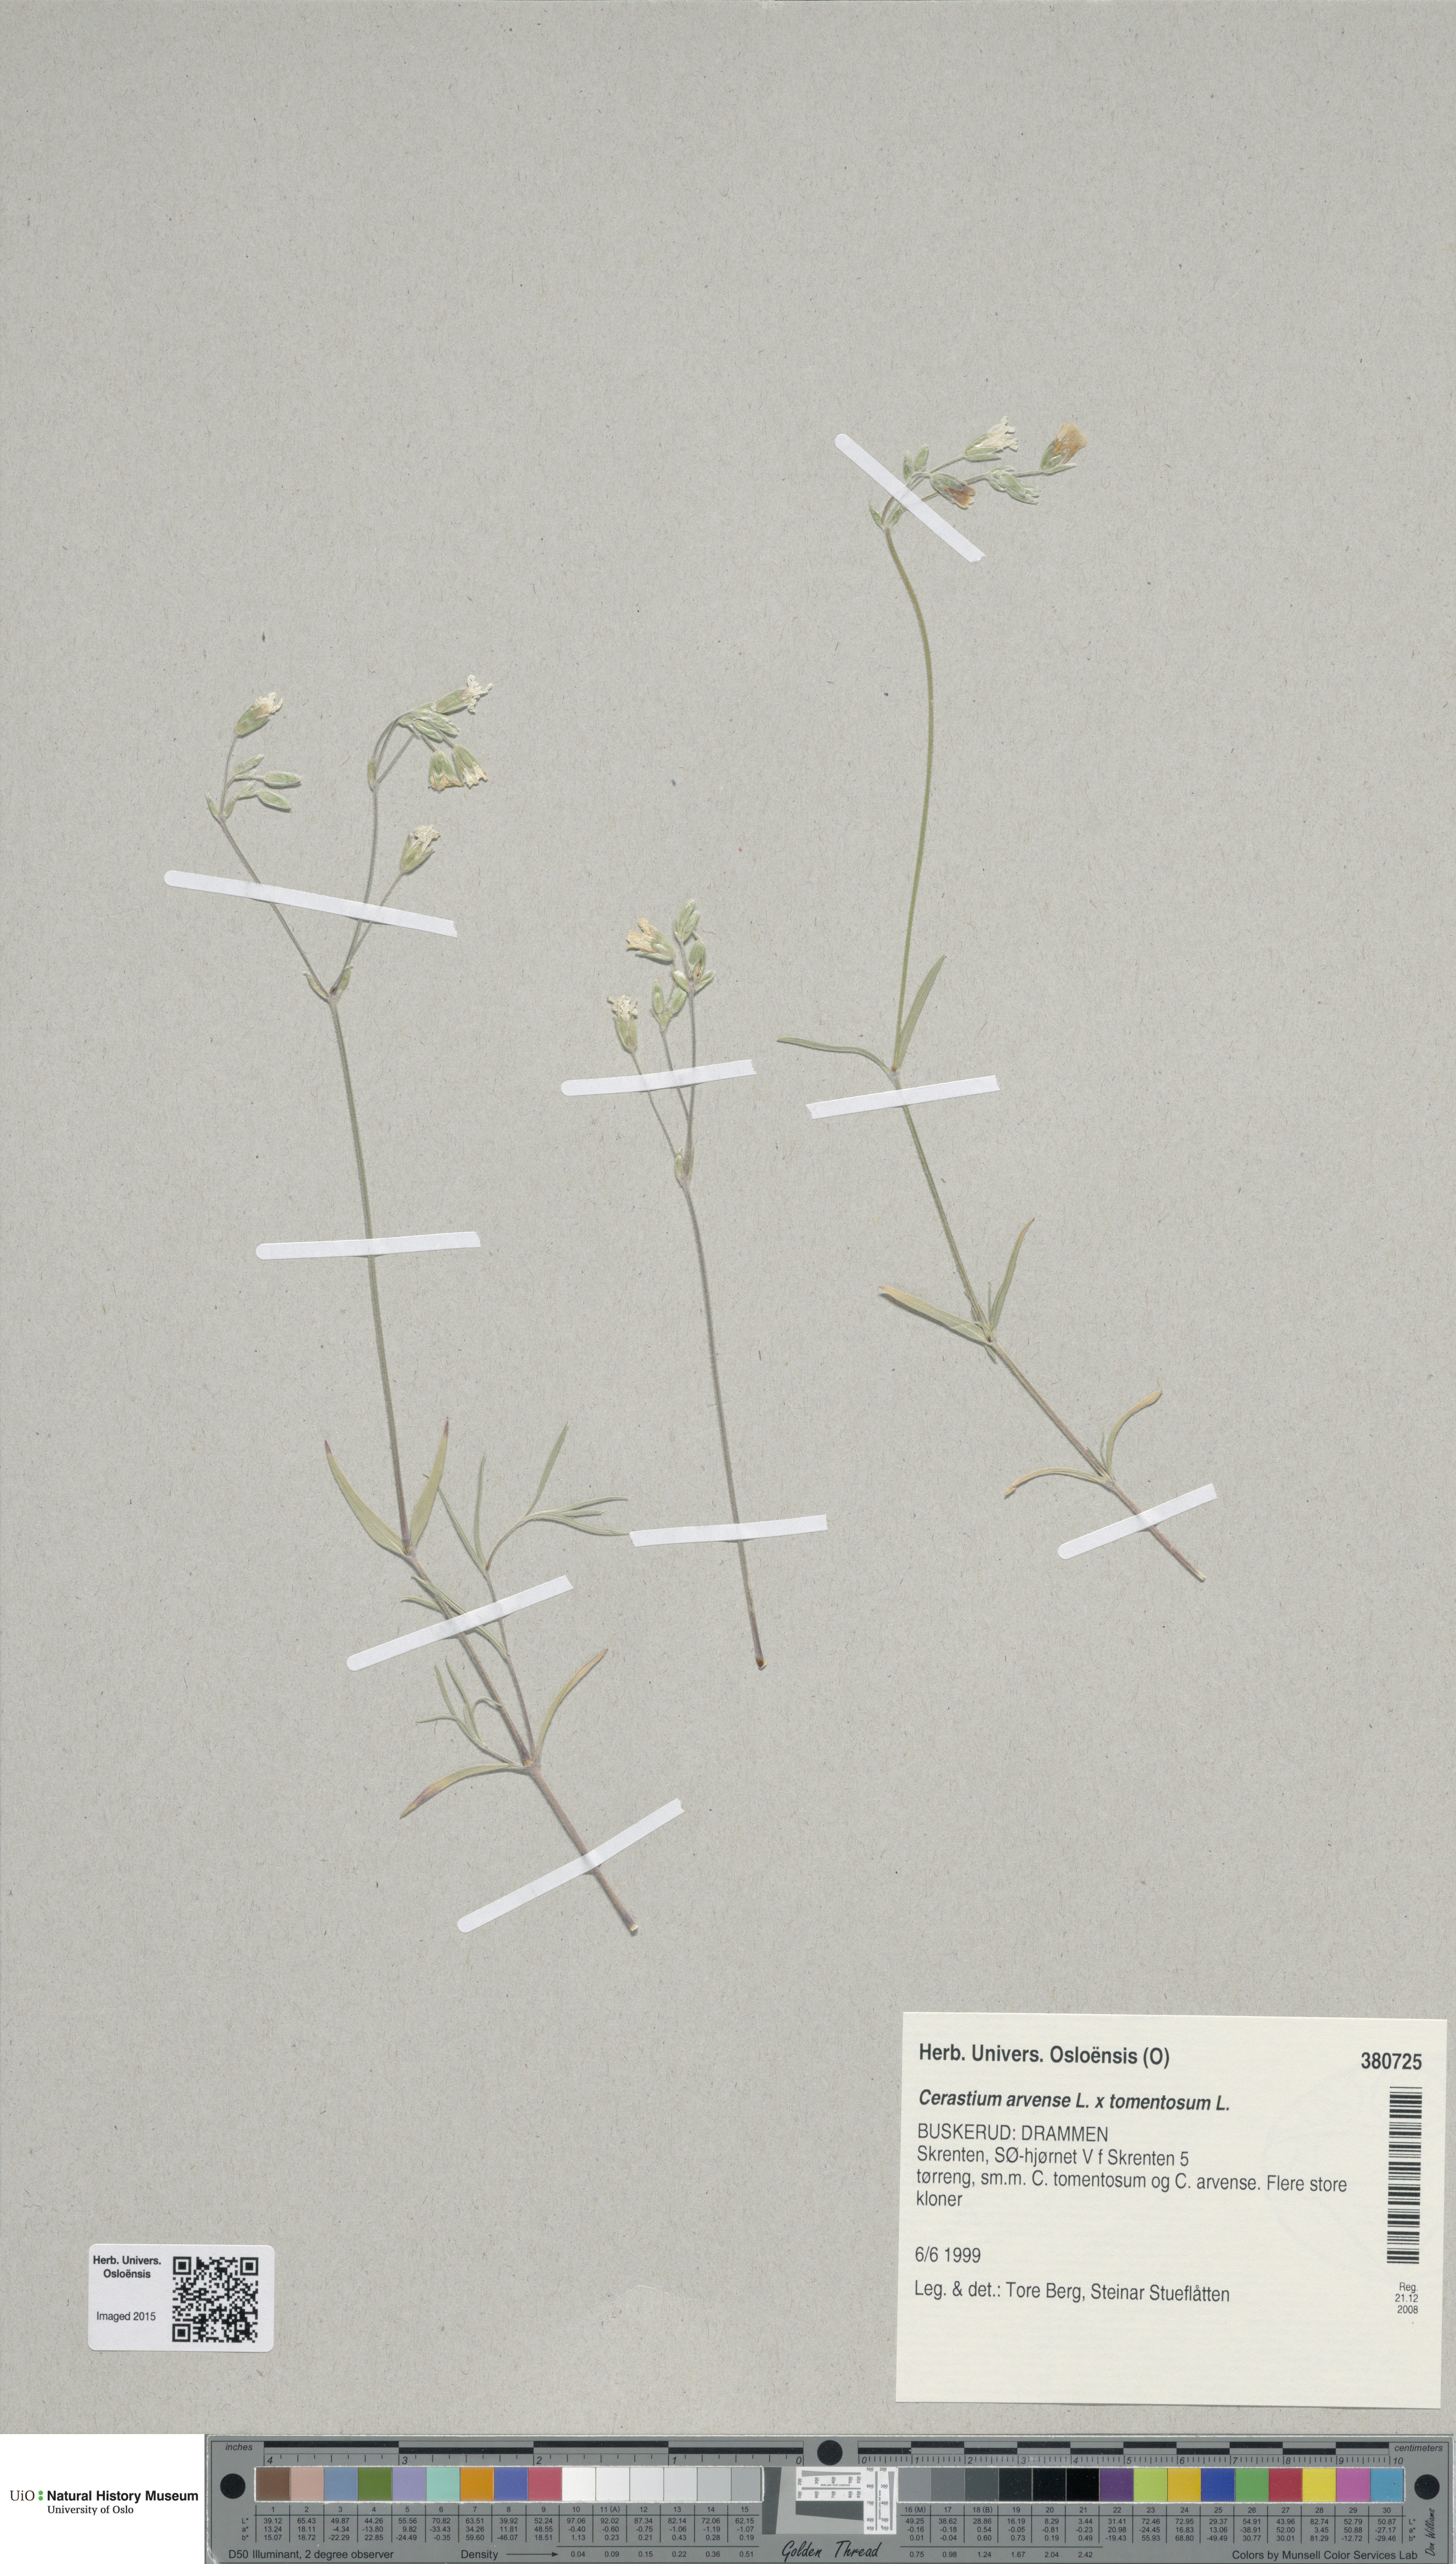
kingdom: Plantae
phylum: Tracheophyta
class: Magnoliopsida
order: Caryophyllales
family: Caryophyllaceae
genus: Cerastium
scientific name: Cerastium
